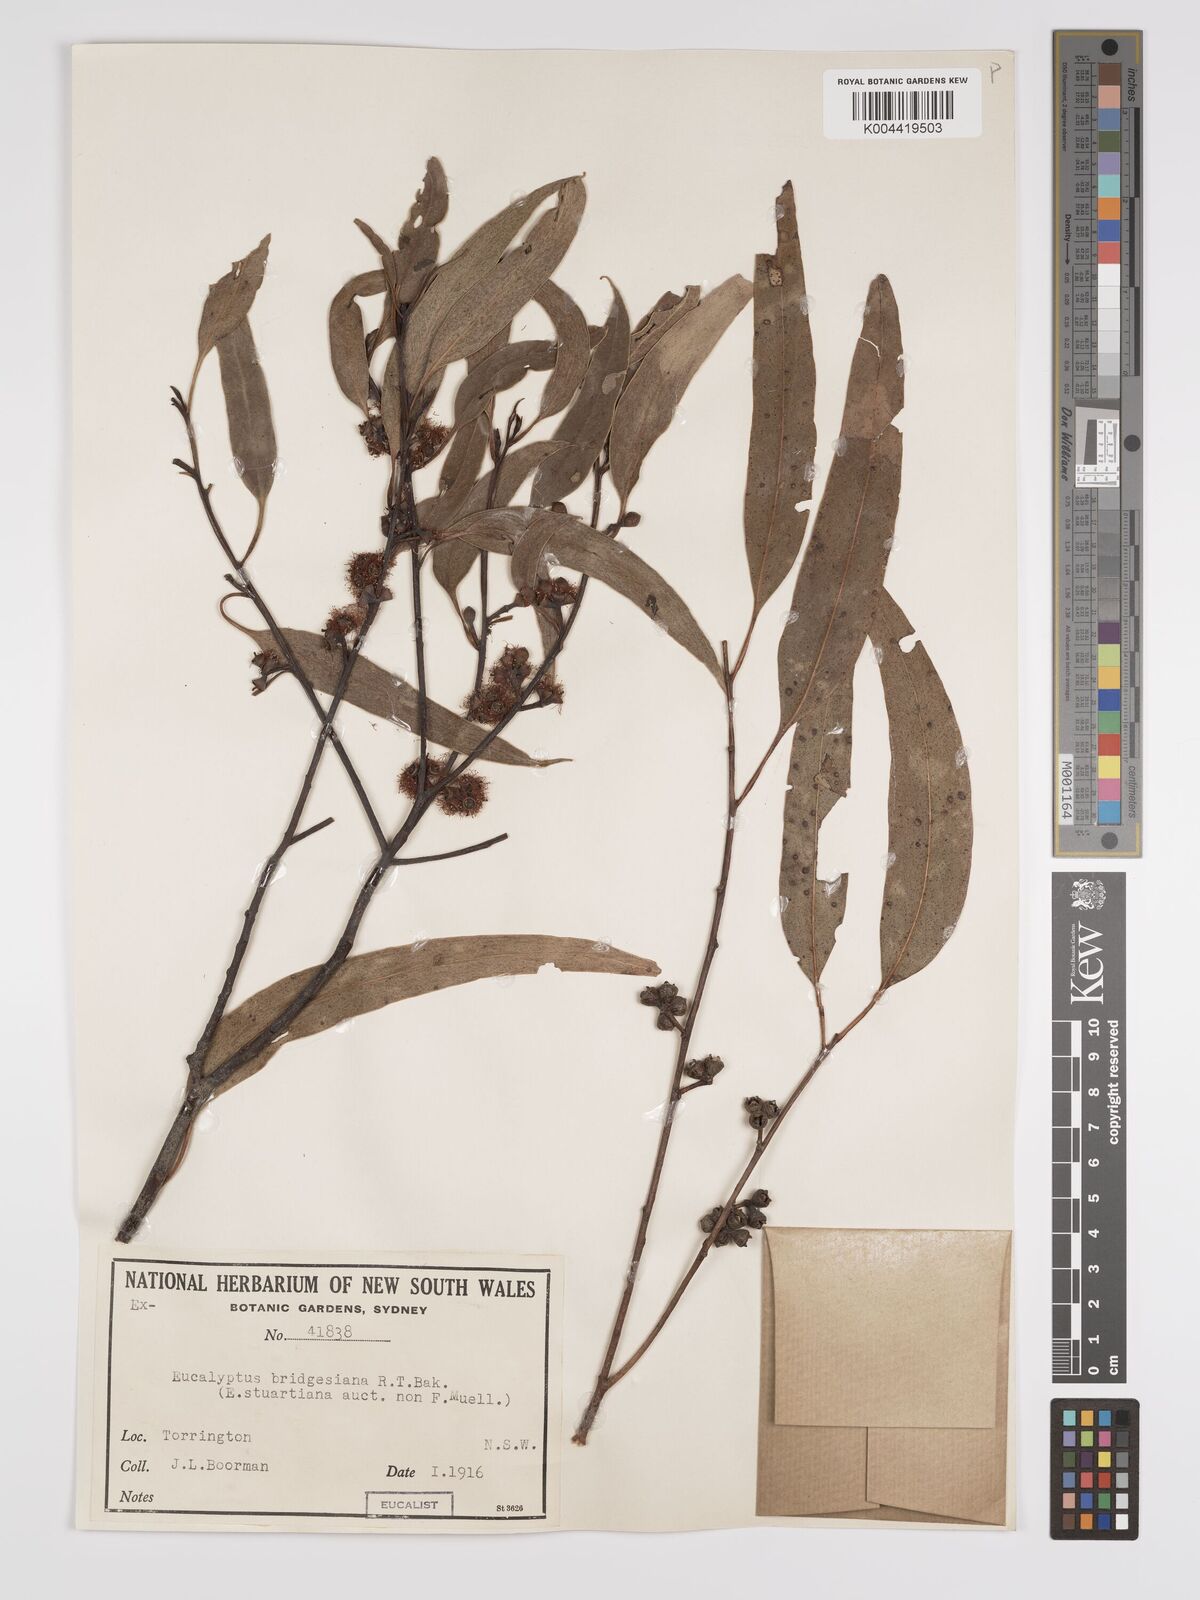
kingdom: Plantae
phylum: Tracheophyta
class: Magnoliopsida
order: Myrtales
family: Myrtaceae
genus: Eucalyptus
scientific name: Eucalyptus bridgesiana
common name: Applebox
